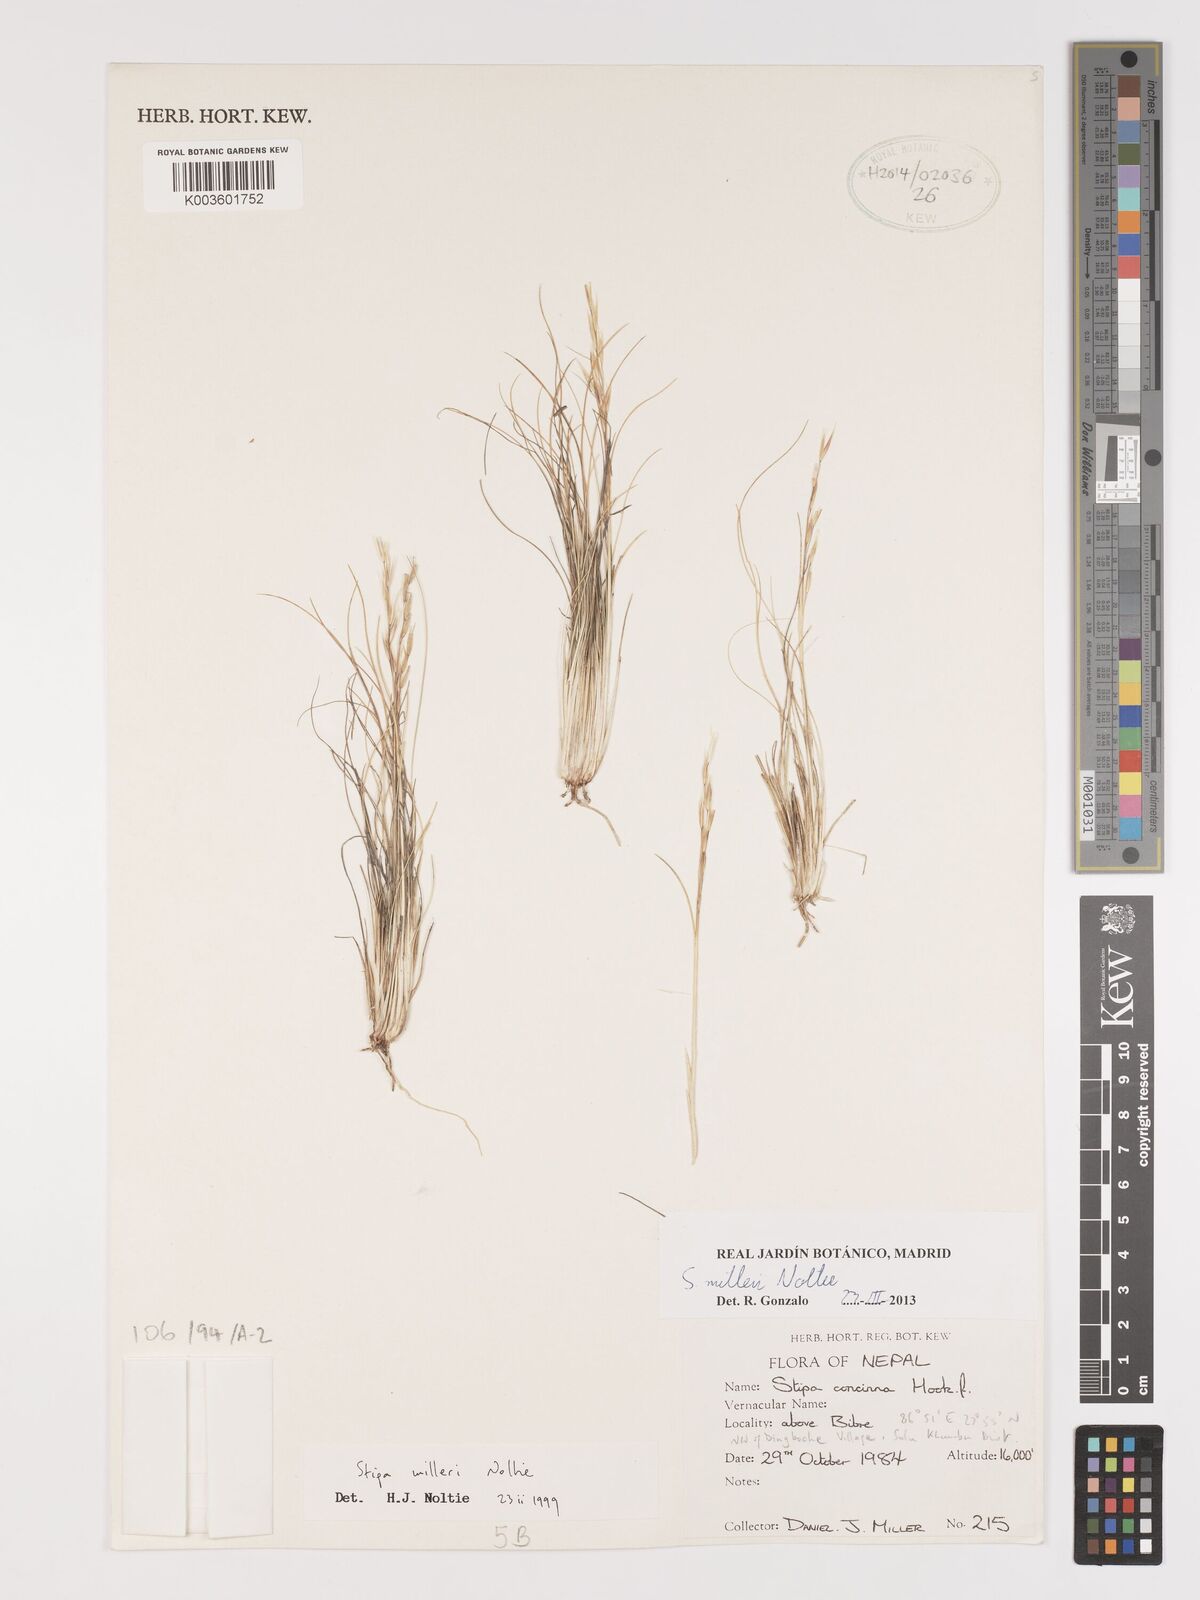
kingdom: Plantae
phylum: Tracheophyta
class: Liliopsida
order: Poales
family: Poaceae
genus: Ptilagrostis
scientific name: Ptilagrostis concinna
